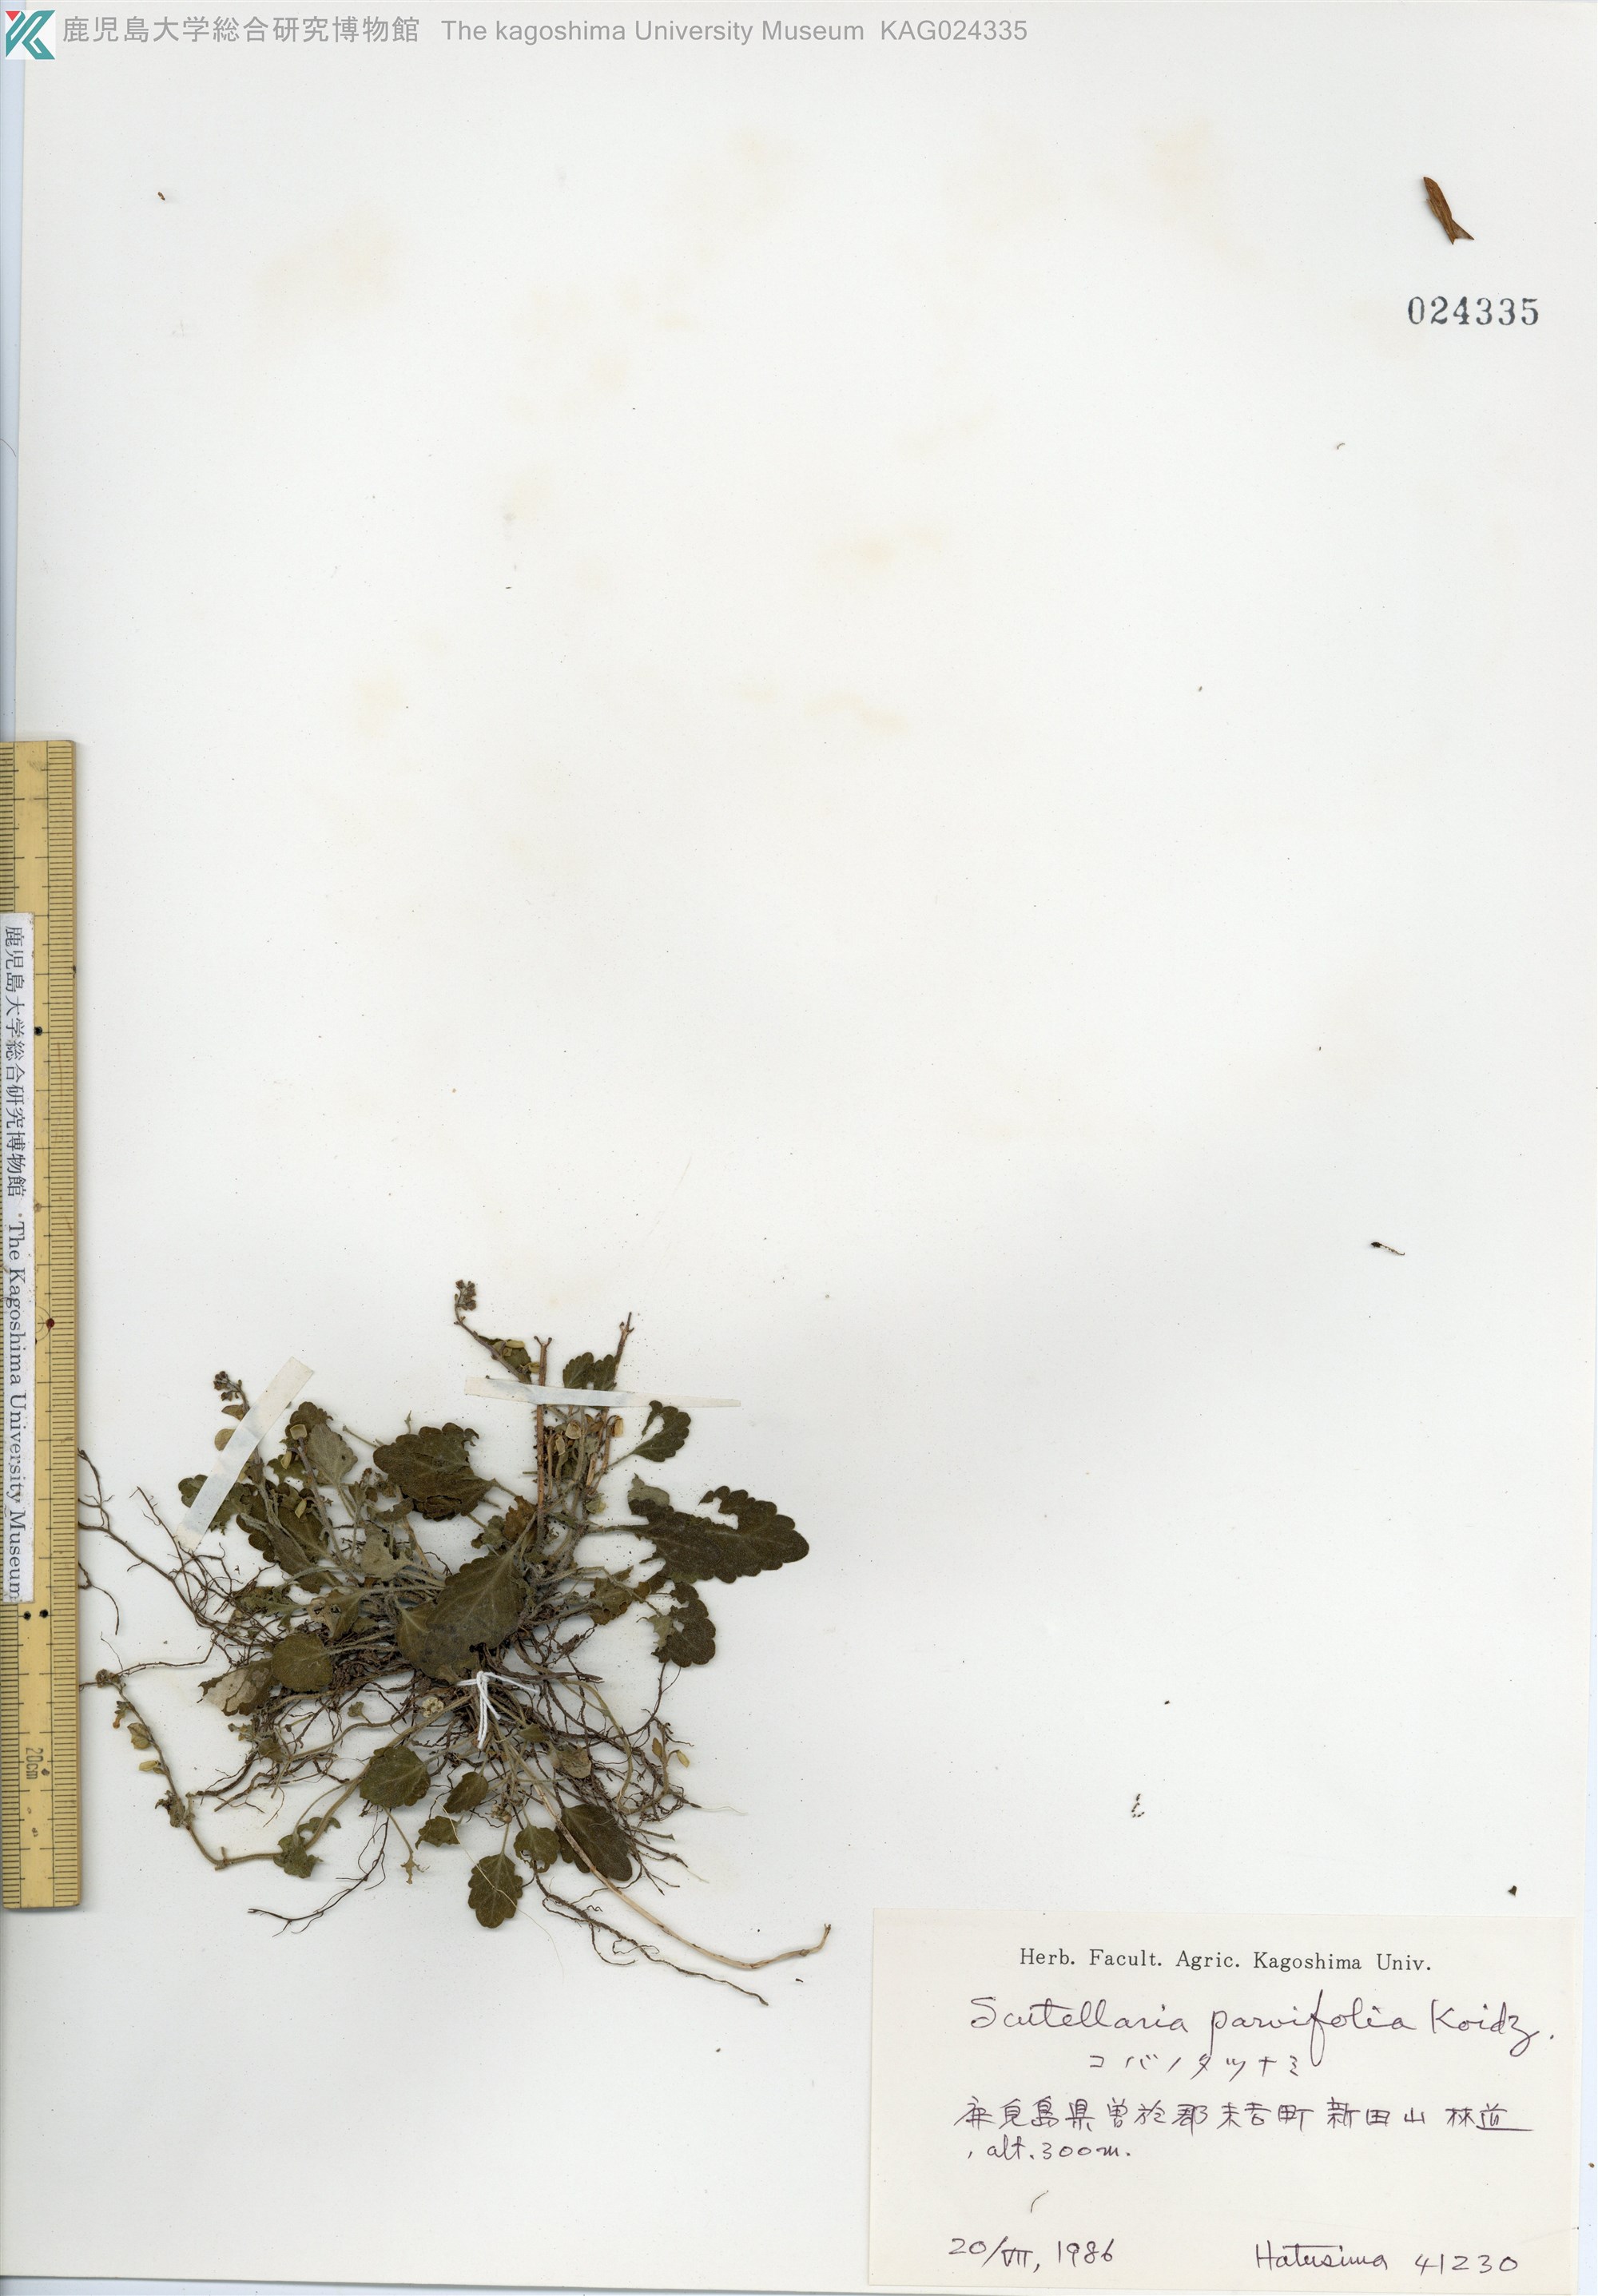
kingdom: Plantae
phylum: Tracheophyta
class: Magnoliopsida
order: Lamiales
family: Lamiaceae
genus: Scutellaria
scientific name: Scutellaria indica
